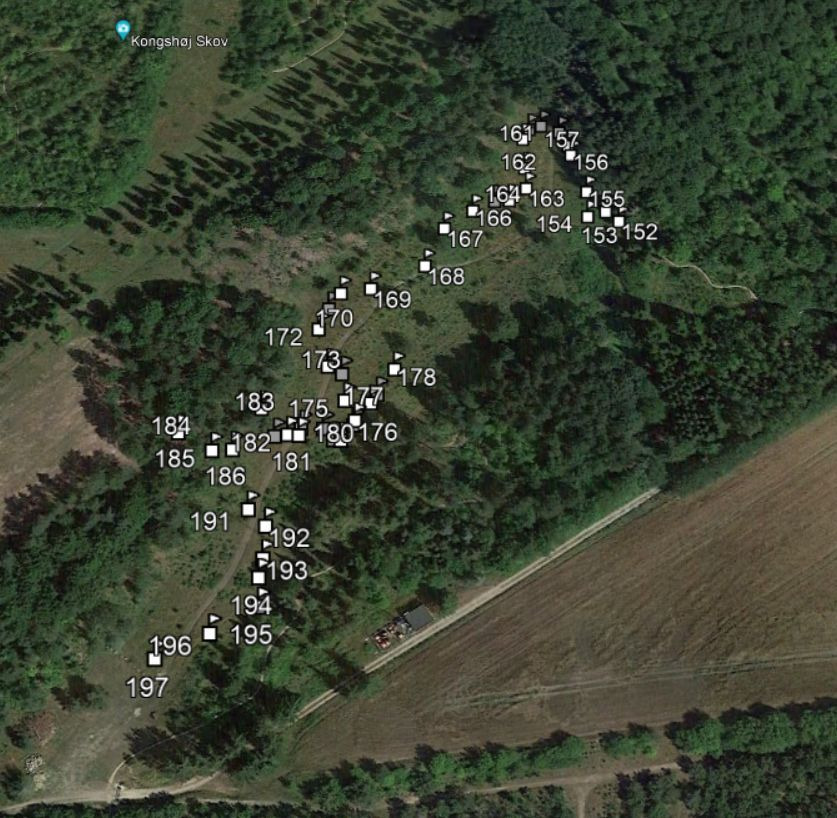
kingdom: Plantae
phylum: Tracheophyta
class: Magnoliopsida
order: Lamiales
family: Plantaginaceae
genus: Veronica
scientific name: Veronica spicata
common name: Aks-ærenpris
